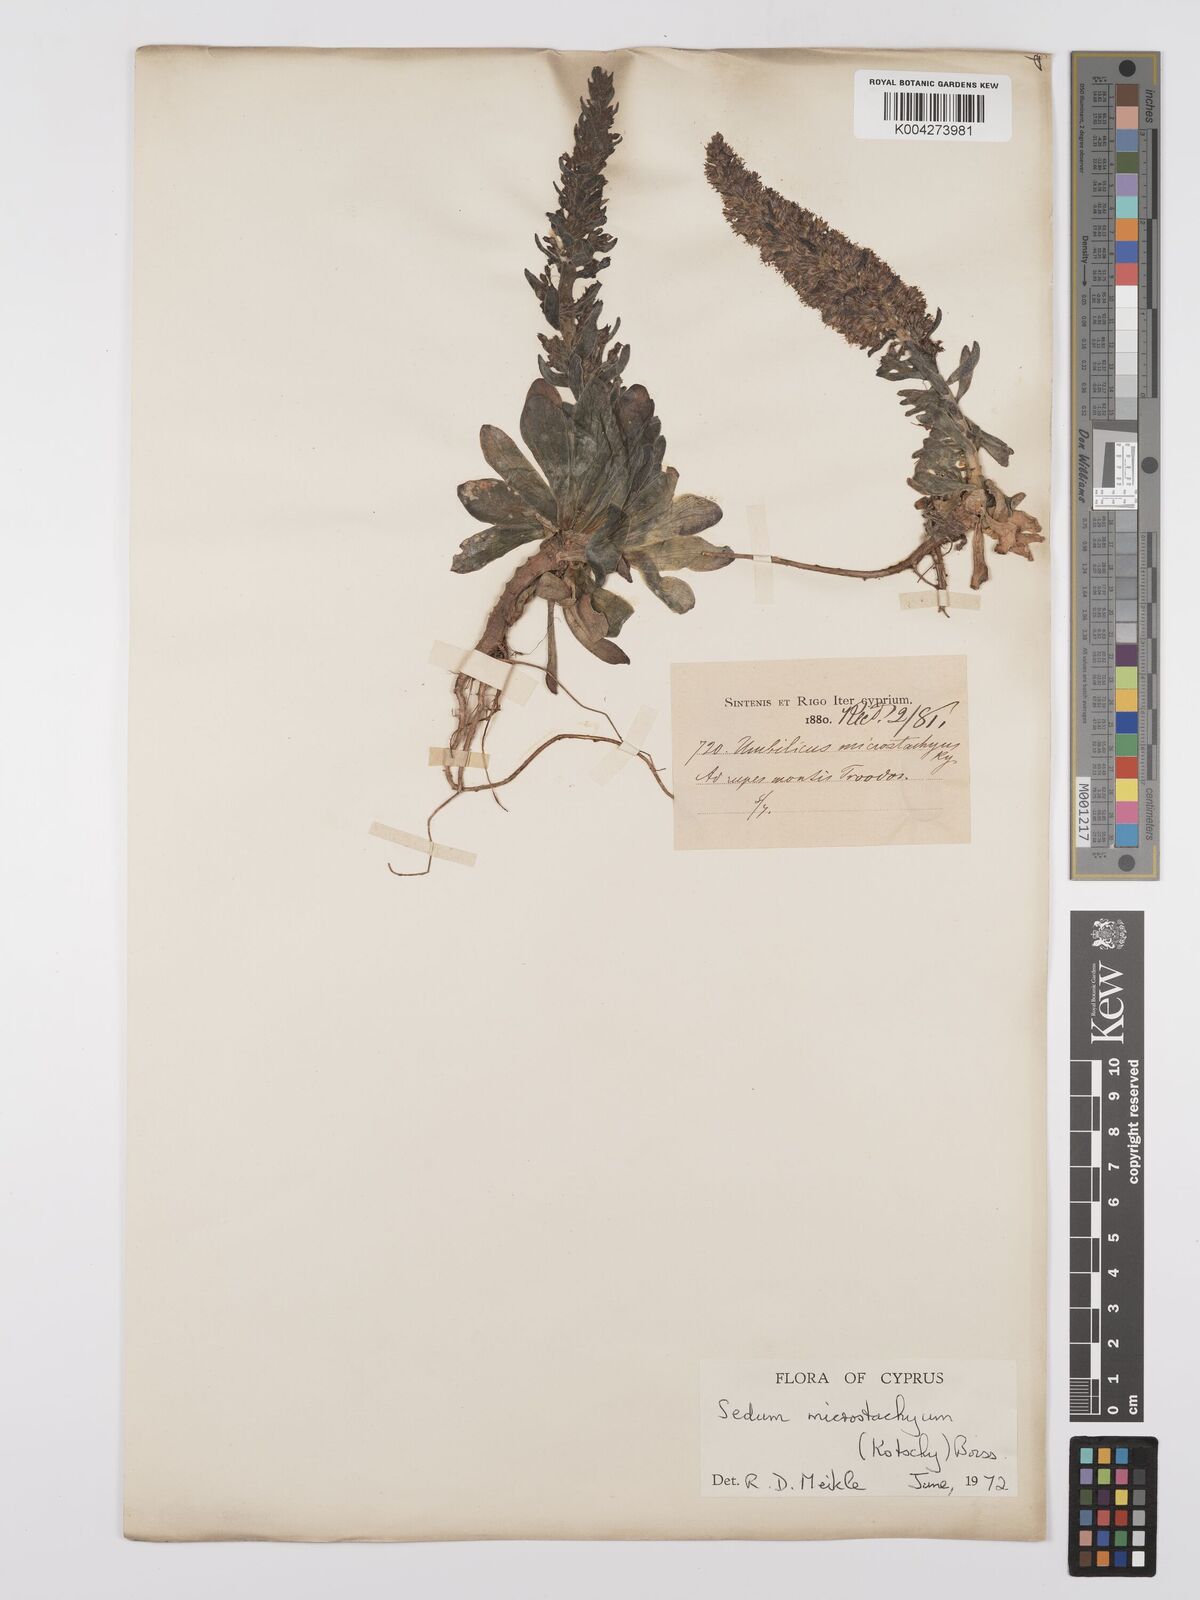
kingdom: Plantae
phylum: Tracheophyta
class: Magnoliopsida
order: Saxifragales
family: Crassulaceae
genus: Sedum
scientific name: Sedum microstachyum
